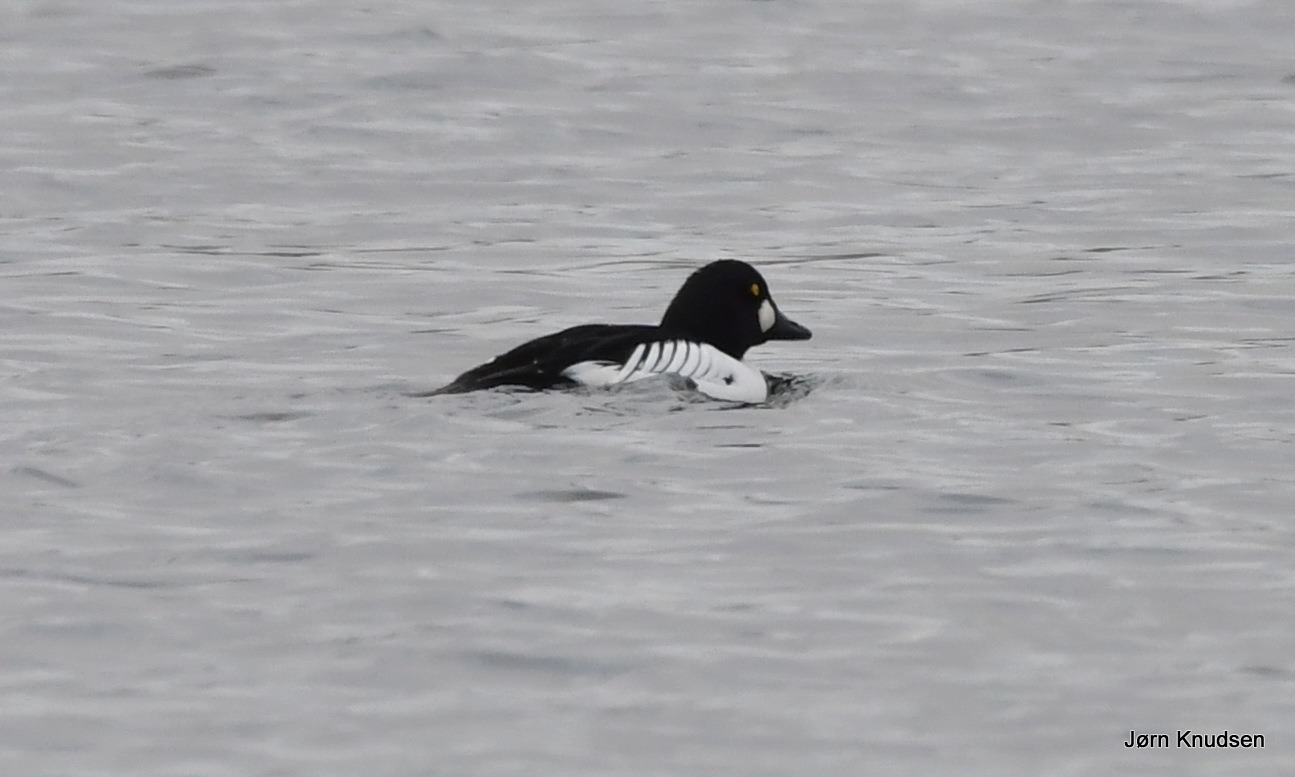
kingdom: Animalia
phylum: Chordata
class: Aves
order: Anseriformes
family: Anatidae
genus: Bucephala
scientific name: Bucephala clangula
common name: Hvinand
